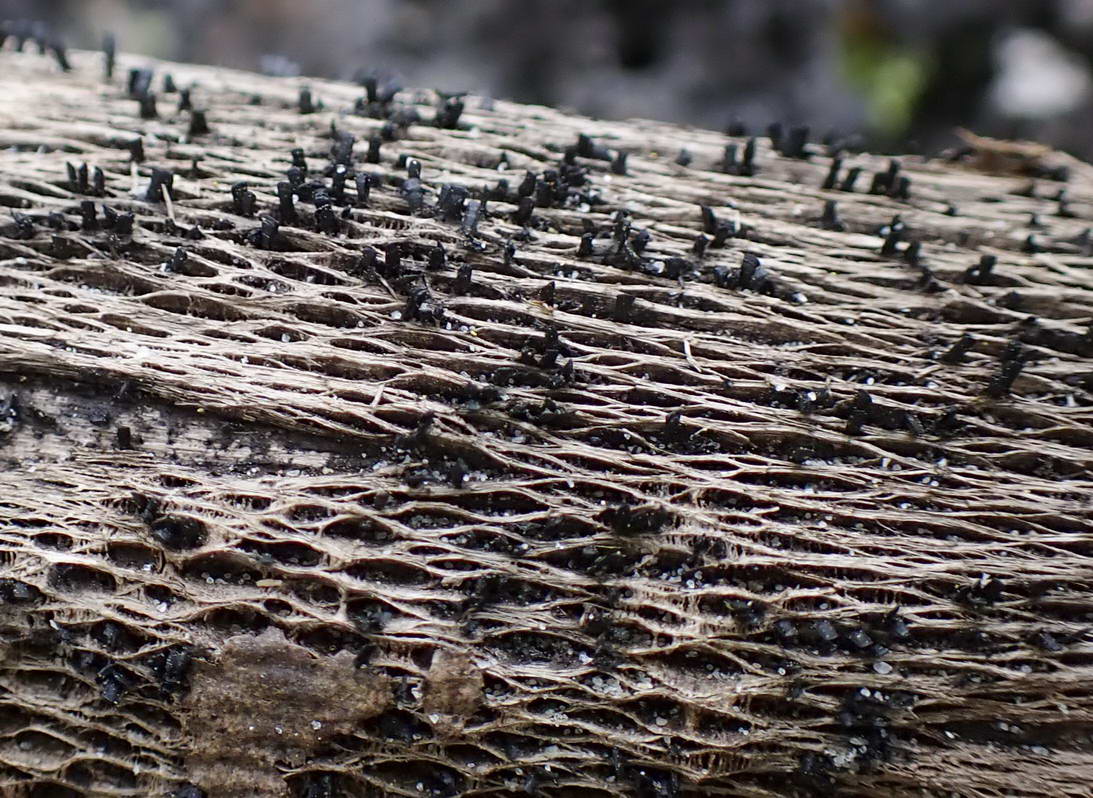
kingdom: Fungi
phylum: Ascomycota
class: Eurotiomycetes
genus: Glyphium
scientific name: Glyphium elatum
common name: kuløkse
